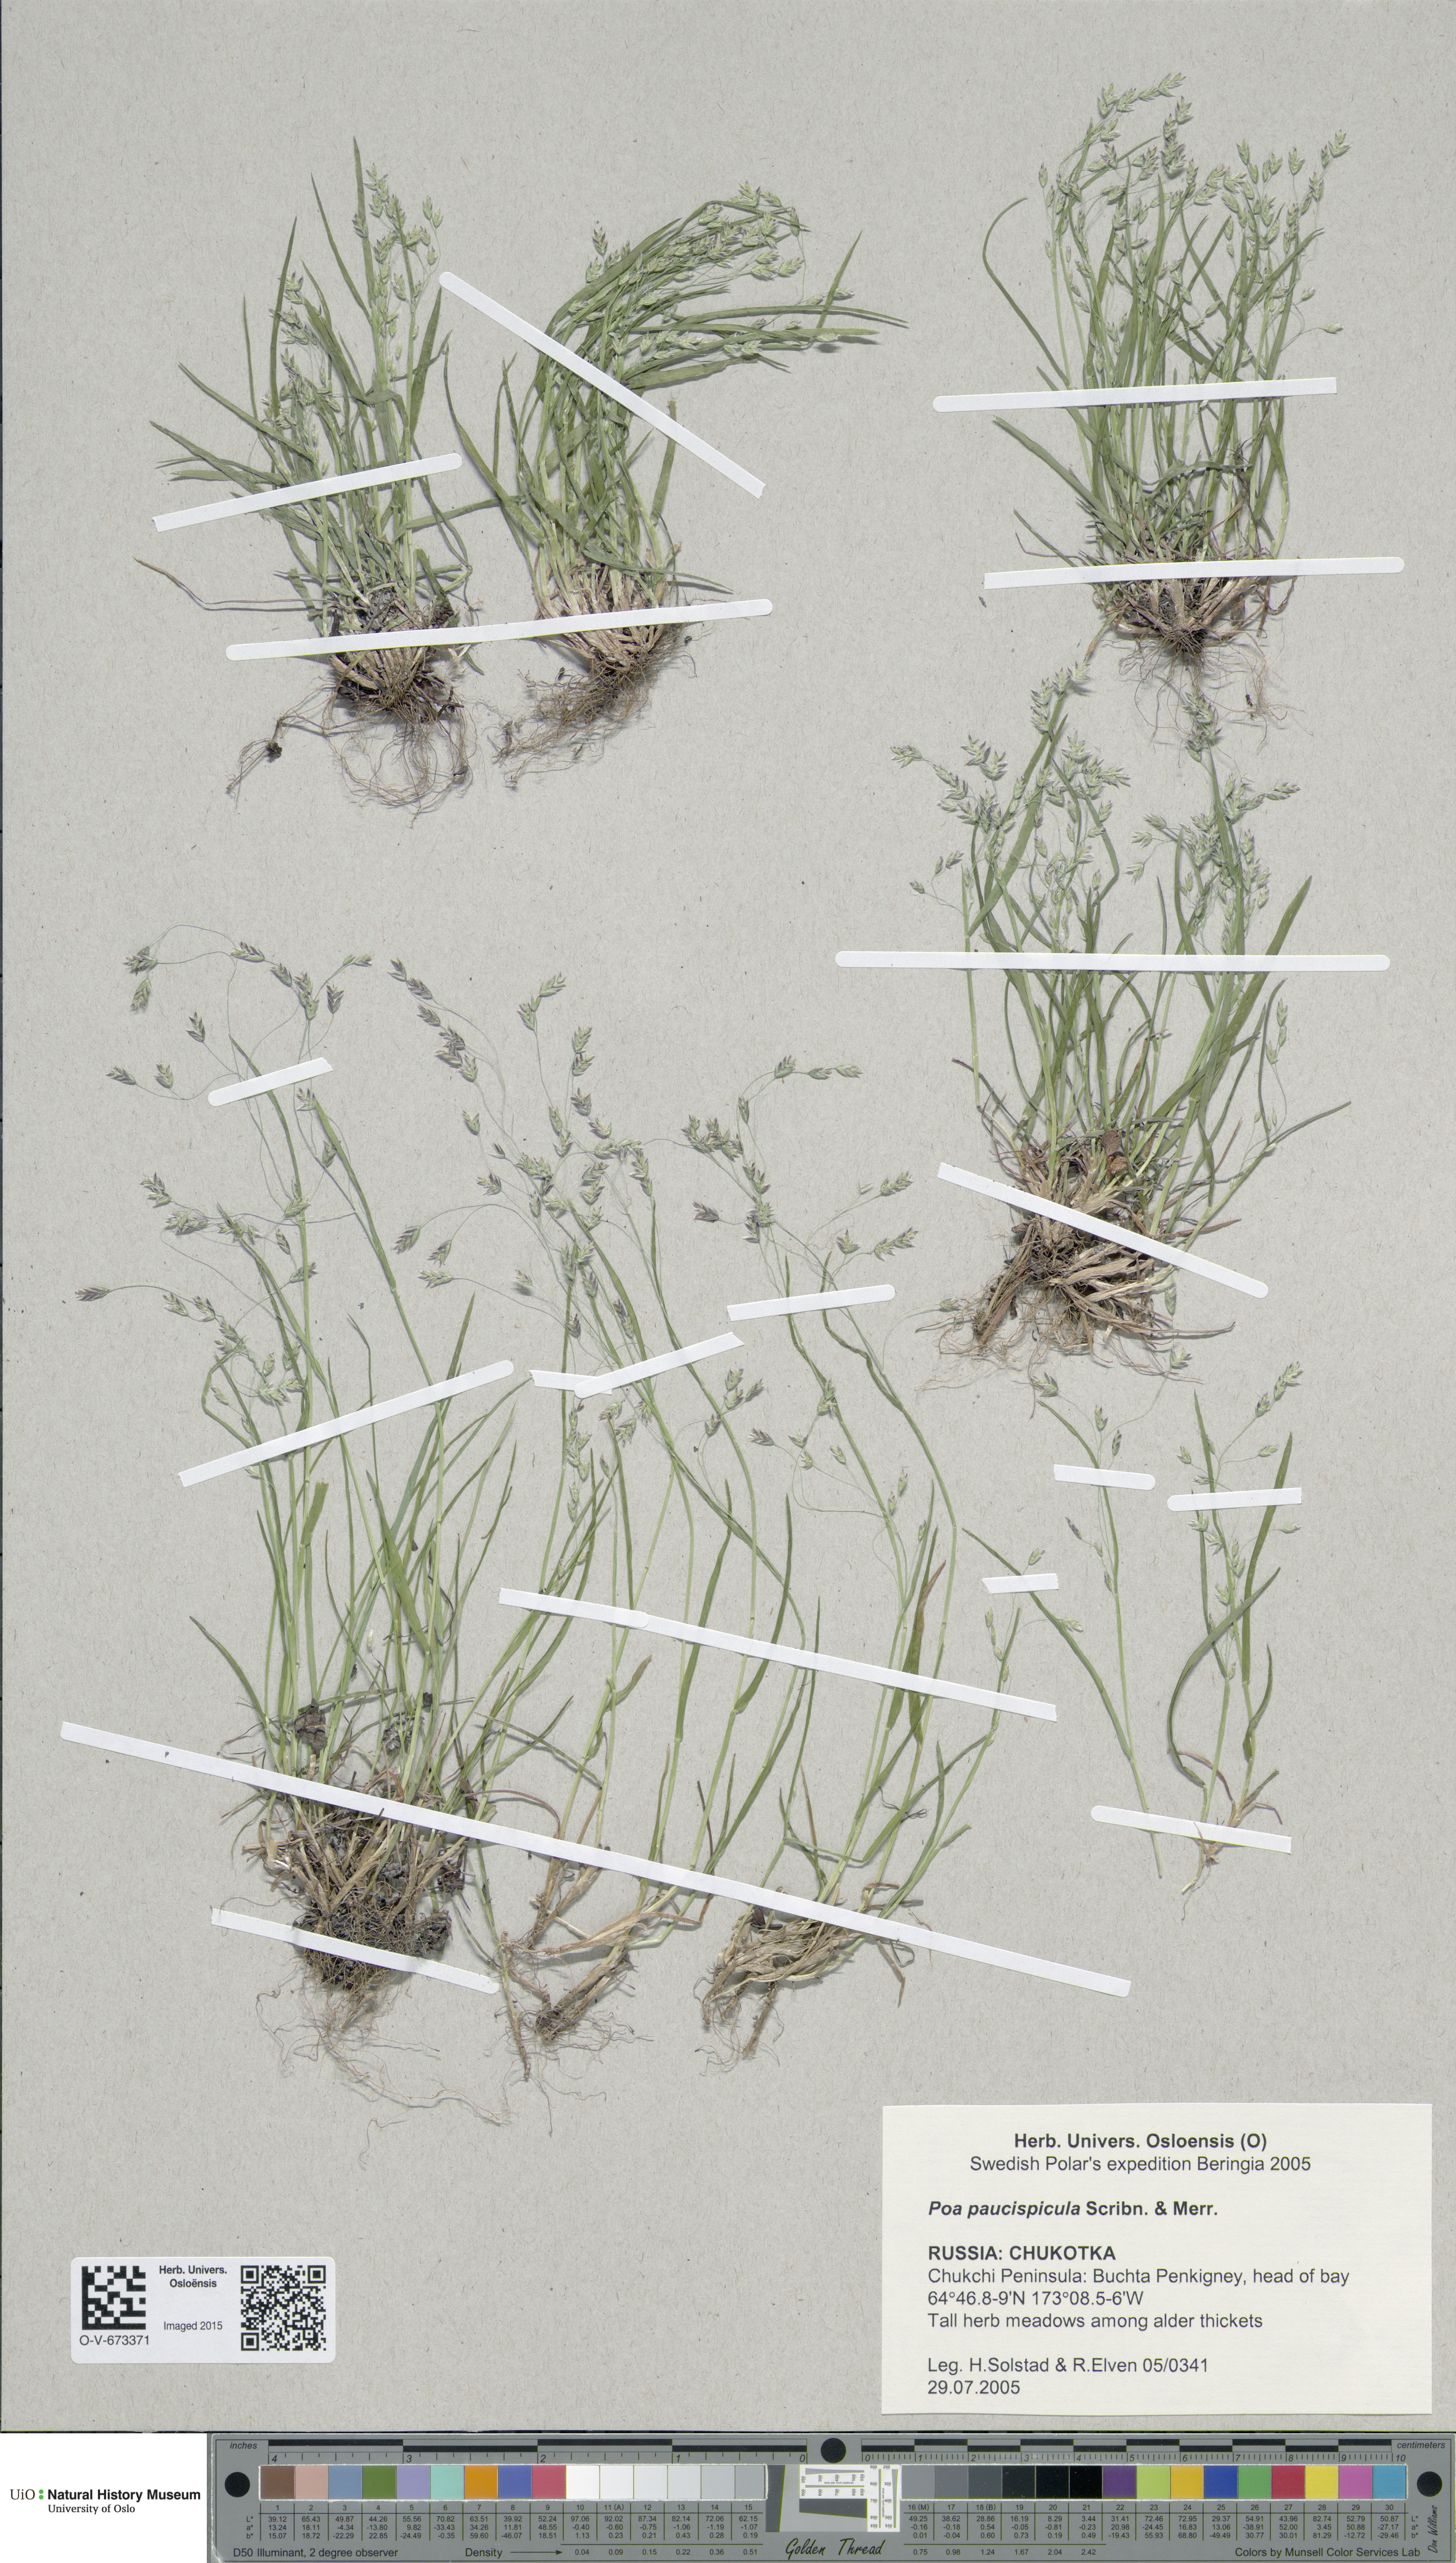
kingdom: Plantae
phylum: Tracheophyta
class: Liliopsida
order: Poales
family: Poaceae
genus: Poa
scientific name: Poa paucispicula
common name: Alaska bluegrass
